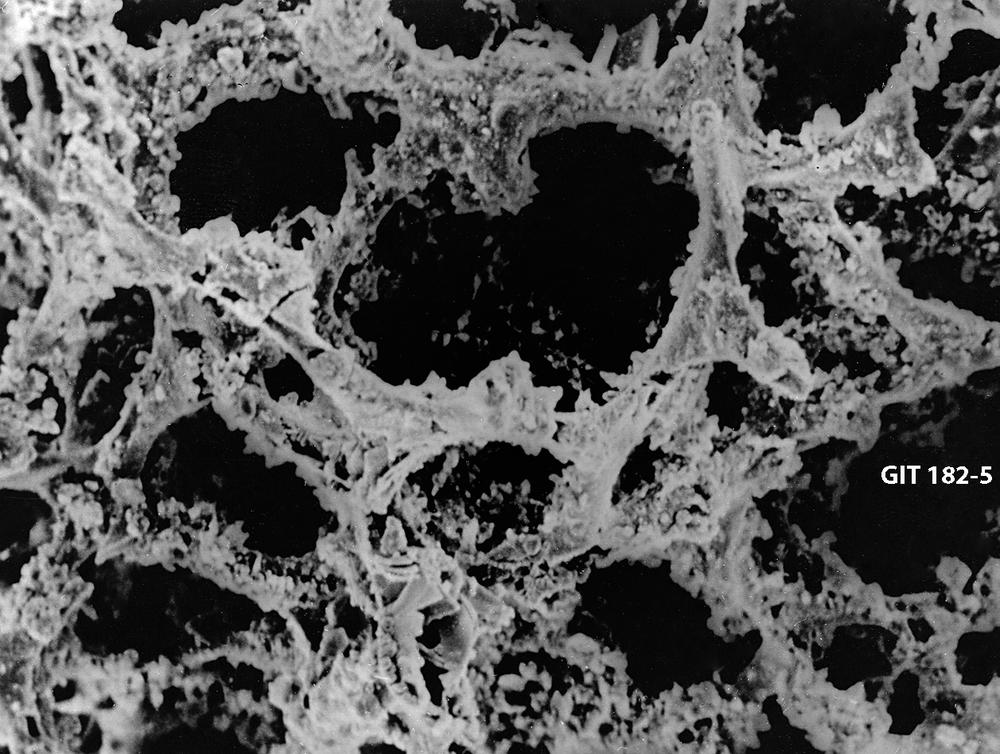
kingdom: Animalia
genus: Entactinia
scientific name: Entactinia
